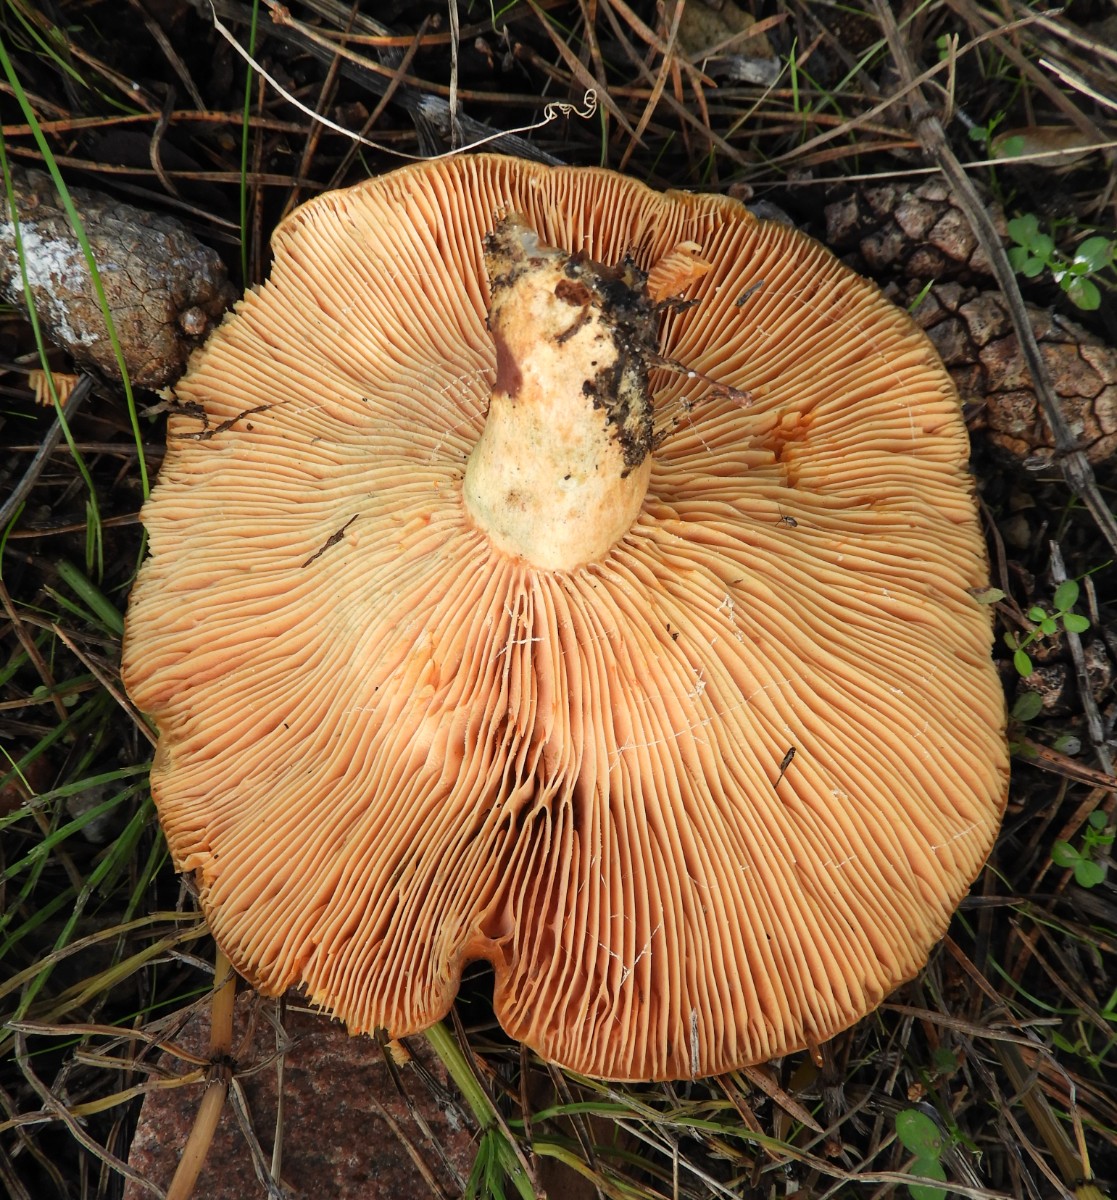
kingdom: Fungi
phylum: Basidiomycota
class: Agaricomycetes
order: Russulales
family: Russulaceae
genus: Lactarius
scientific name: Lactarius deterrimus
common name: gran-mælkehat
